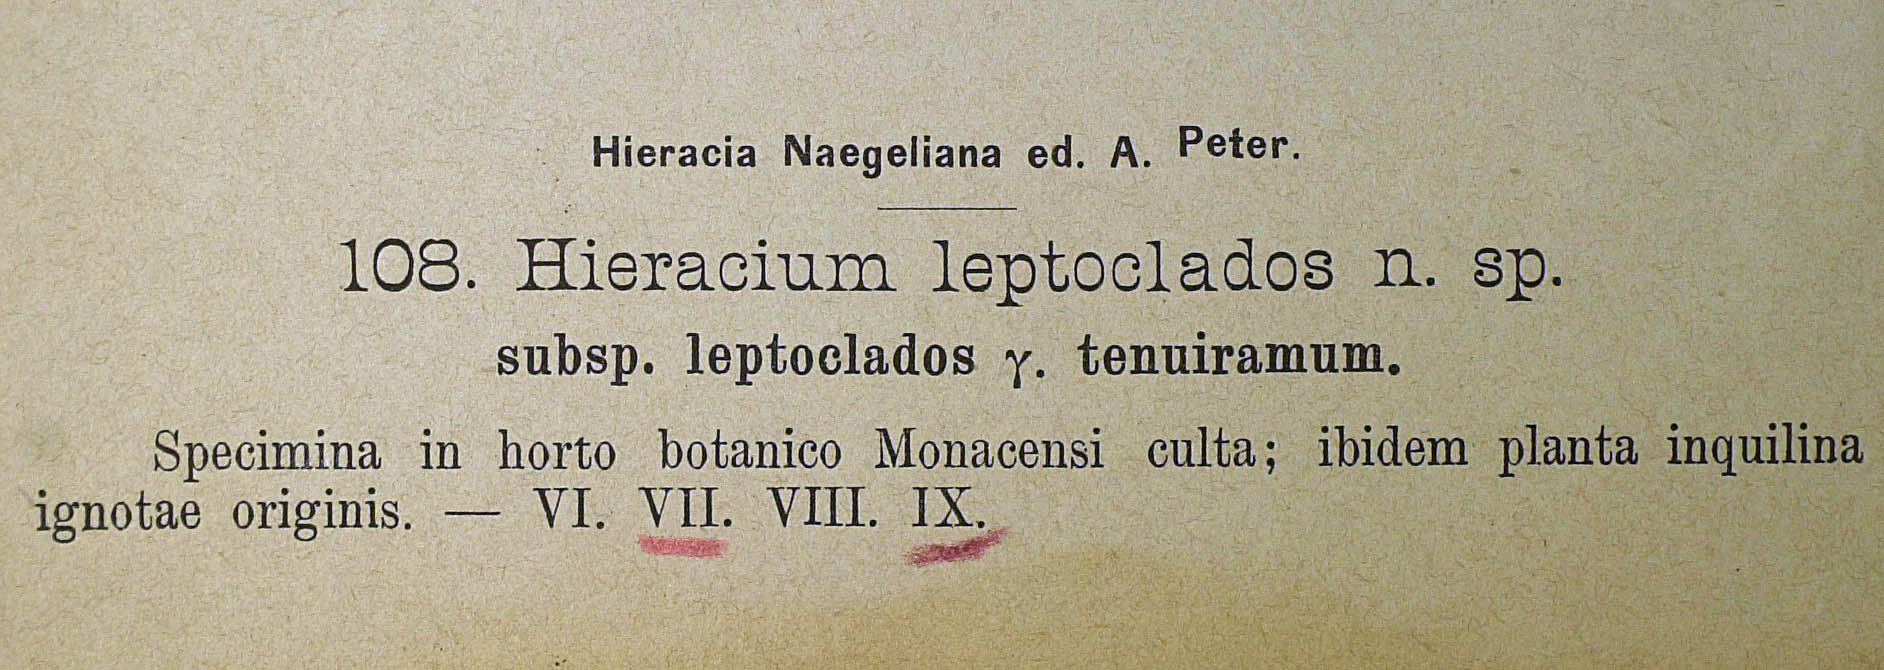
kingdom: Plantae
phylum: Tracheophyta
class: Magnoliopsida
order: Asterales
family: Asteraceae
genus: Pilosella
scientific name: Pilosella leptoclados
